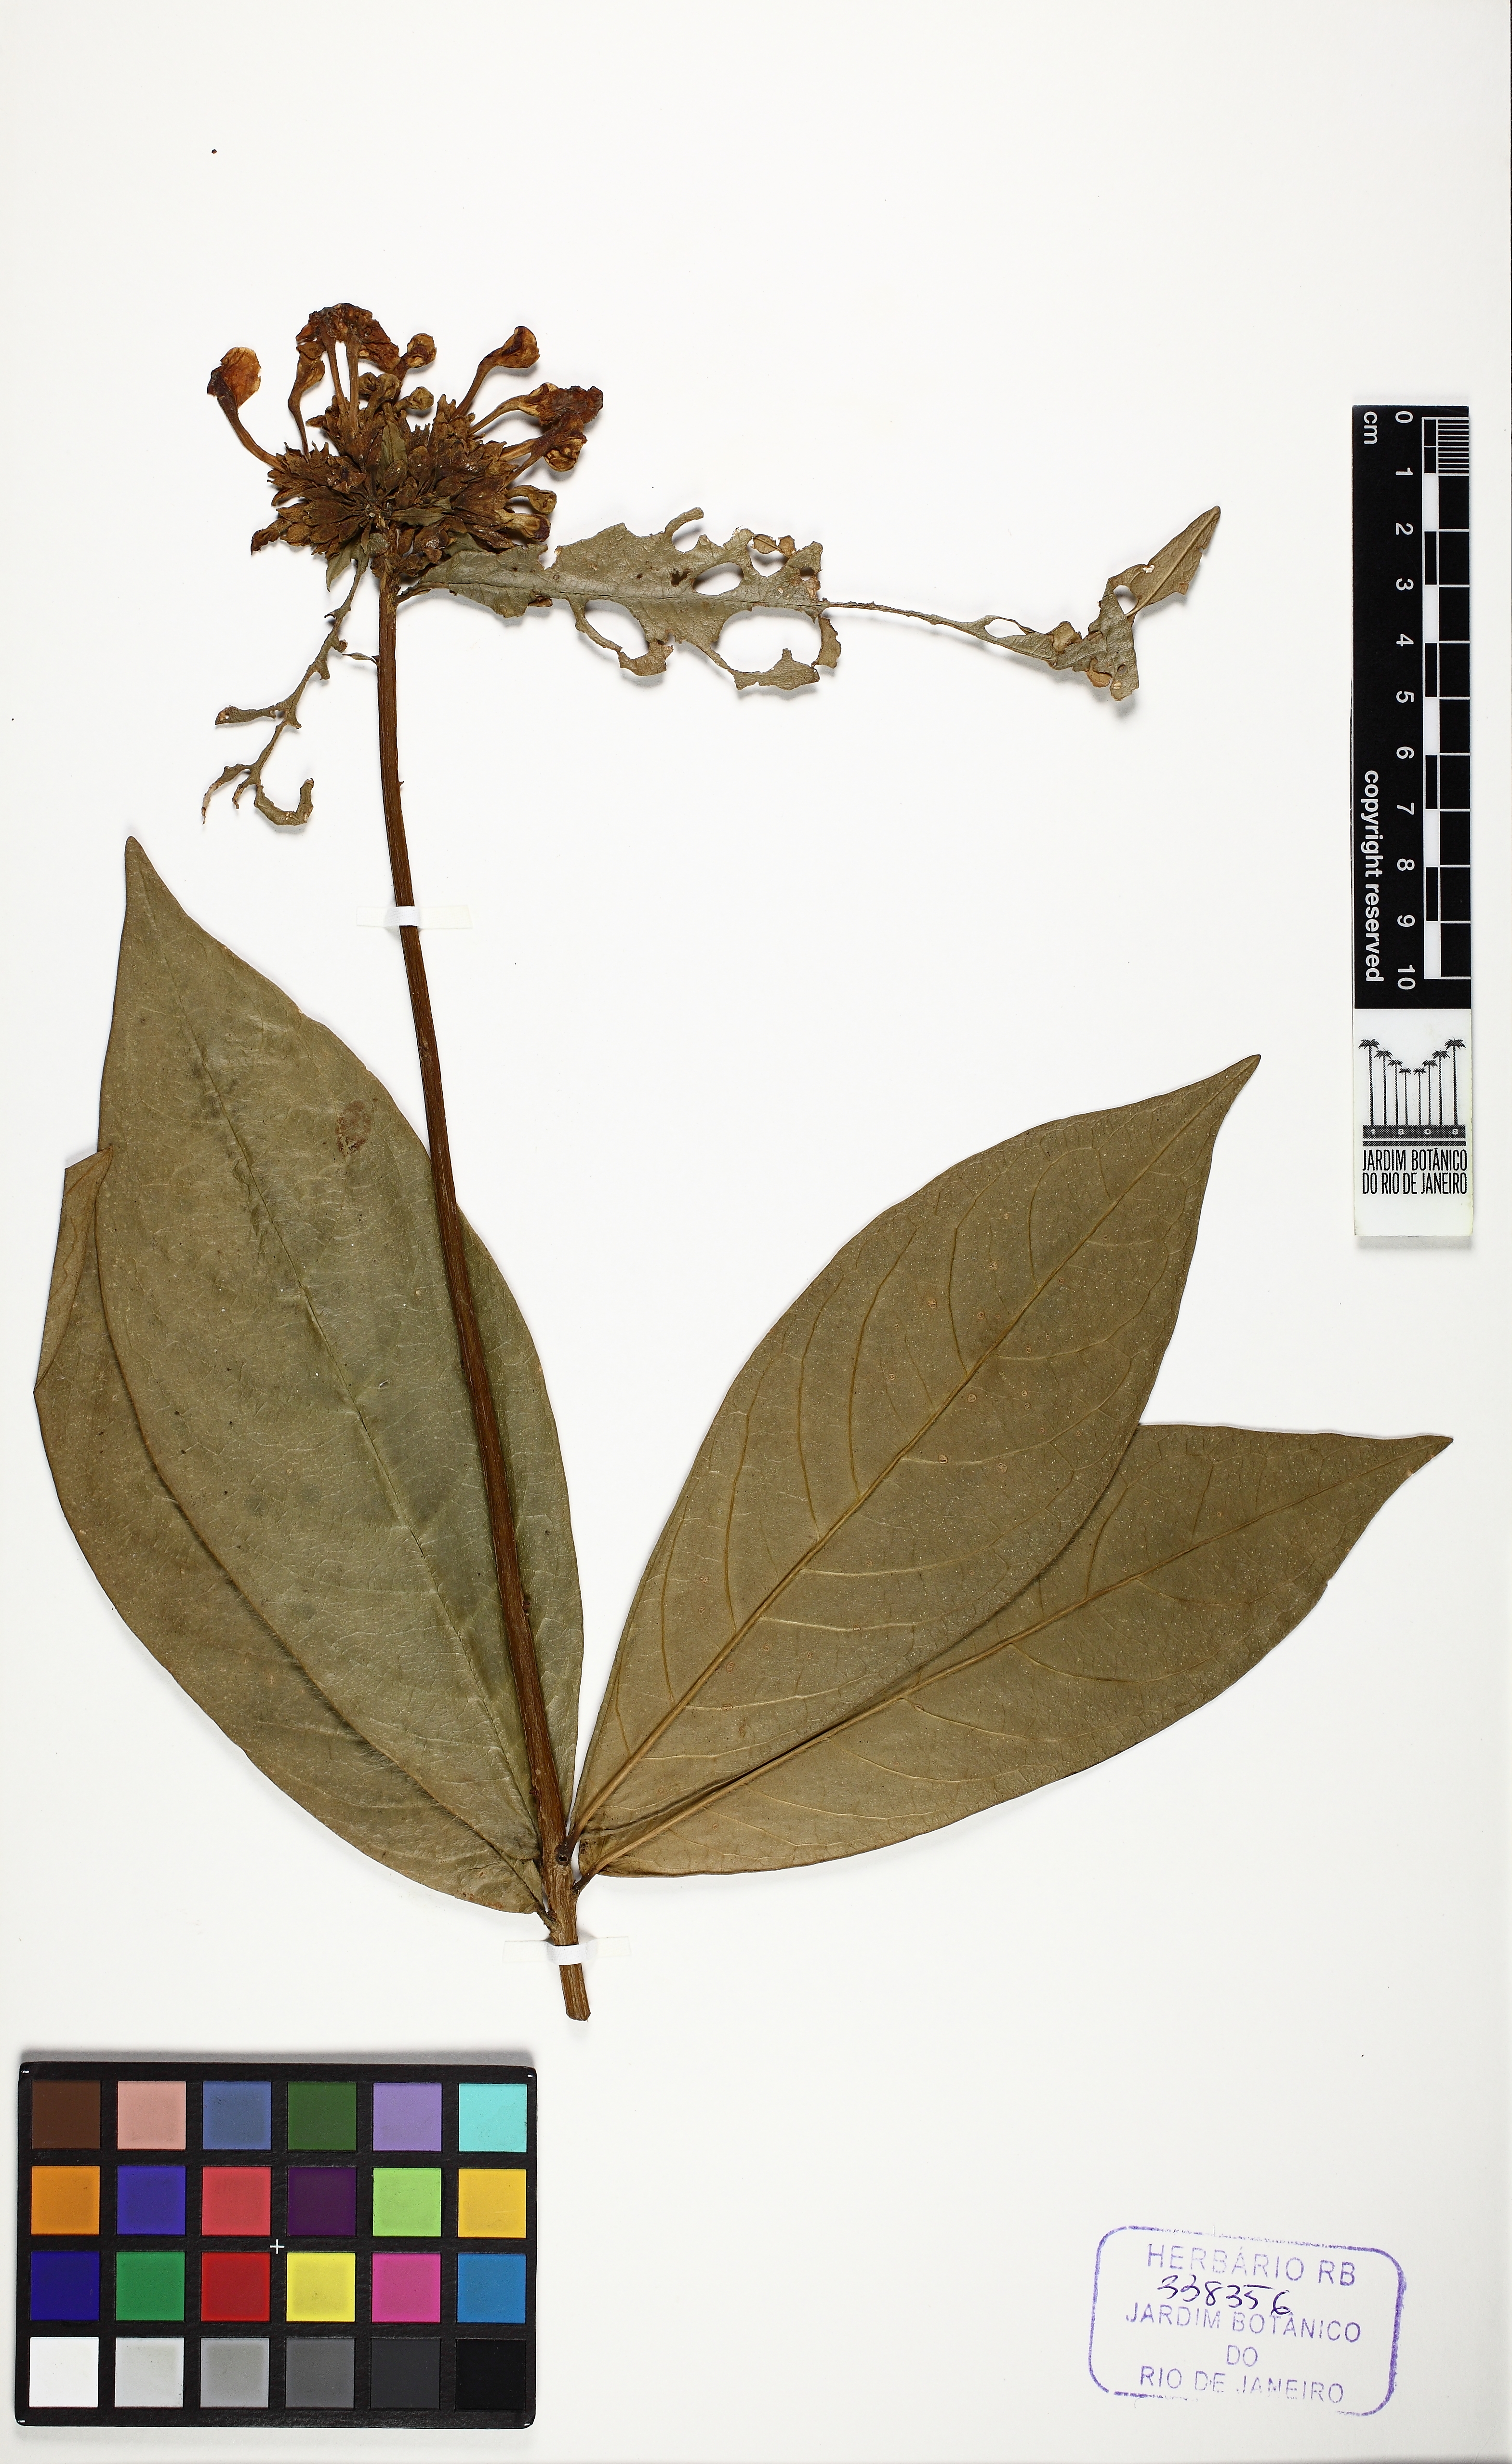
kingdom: Plantae
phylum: Tracheophyta
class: Magnoliopsida
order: Solanales
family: Solanaceae
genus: Brunfelsia
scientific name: Brunfelsia
